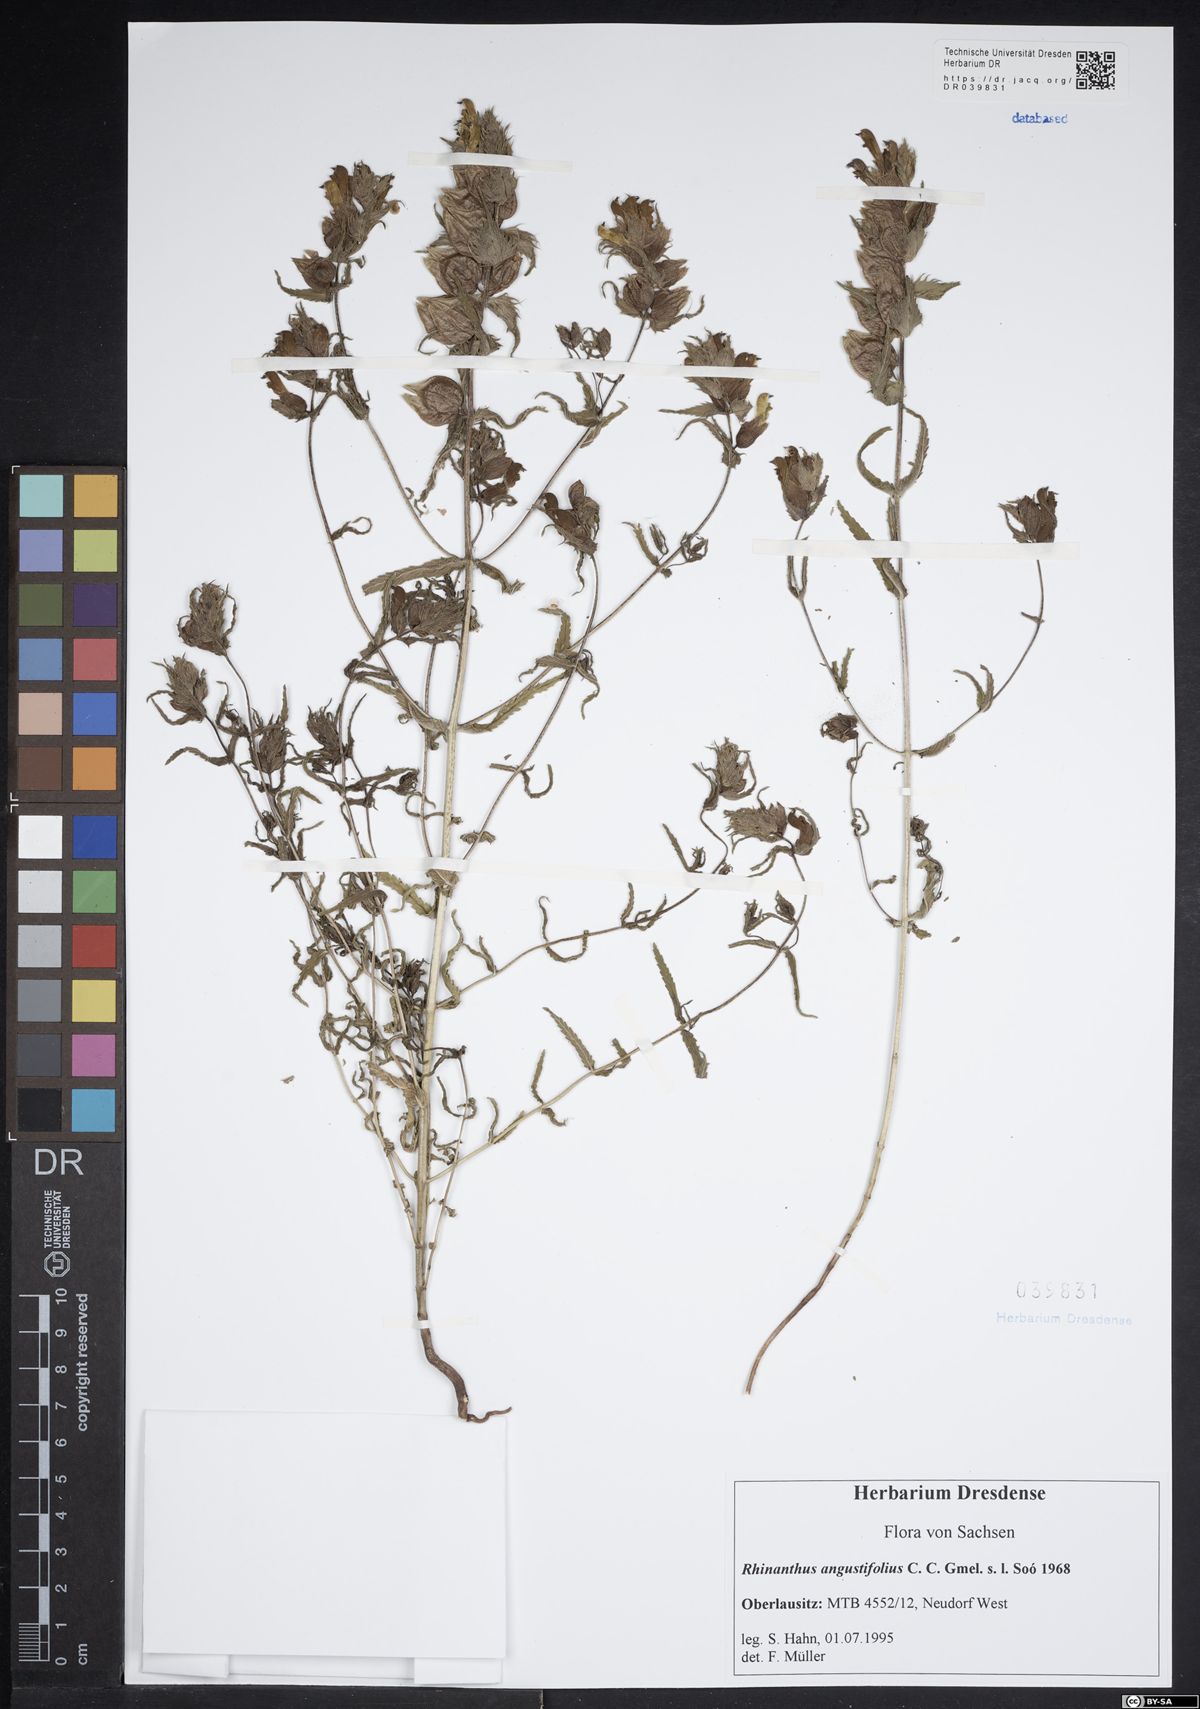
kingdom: Plantae
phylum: Tracheophyta
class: Magnoliopsida
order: Lamiales
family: Orobanchaceae
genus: Rhinanthus
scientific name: Rhinanthus serotinus
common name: Late-flowering yellow rattle
